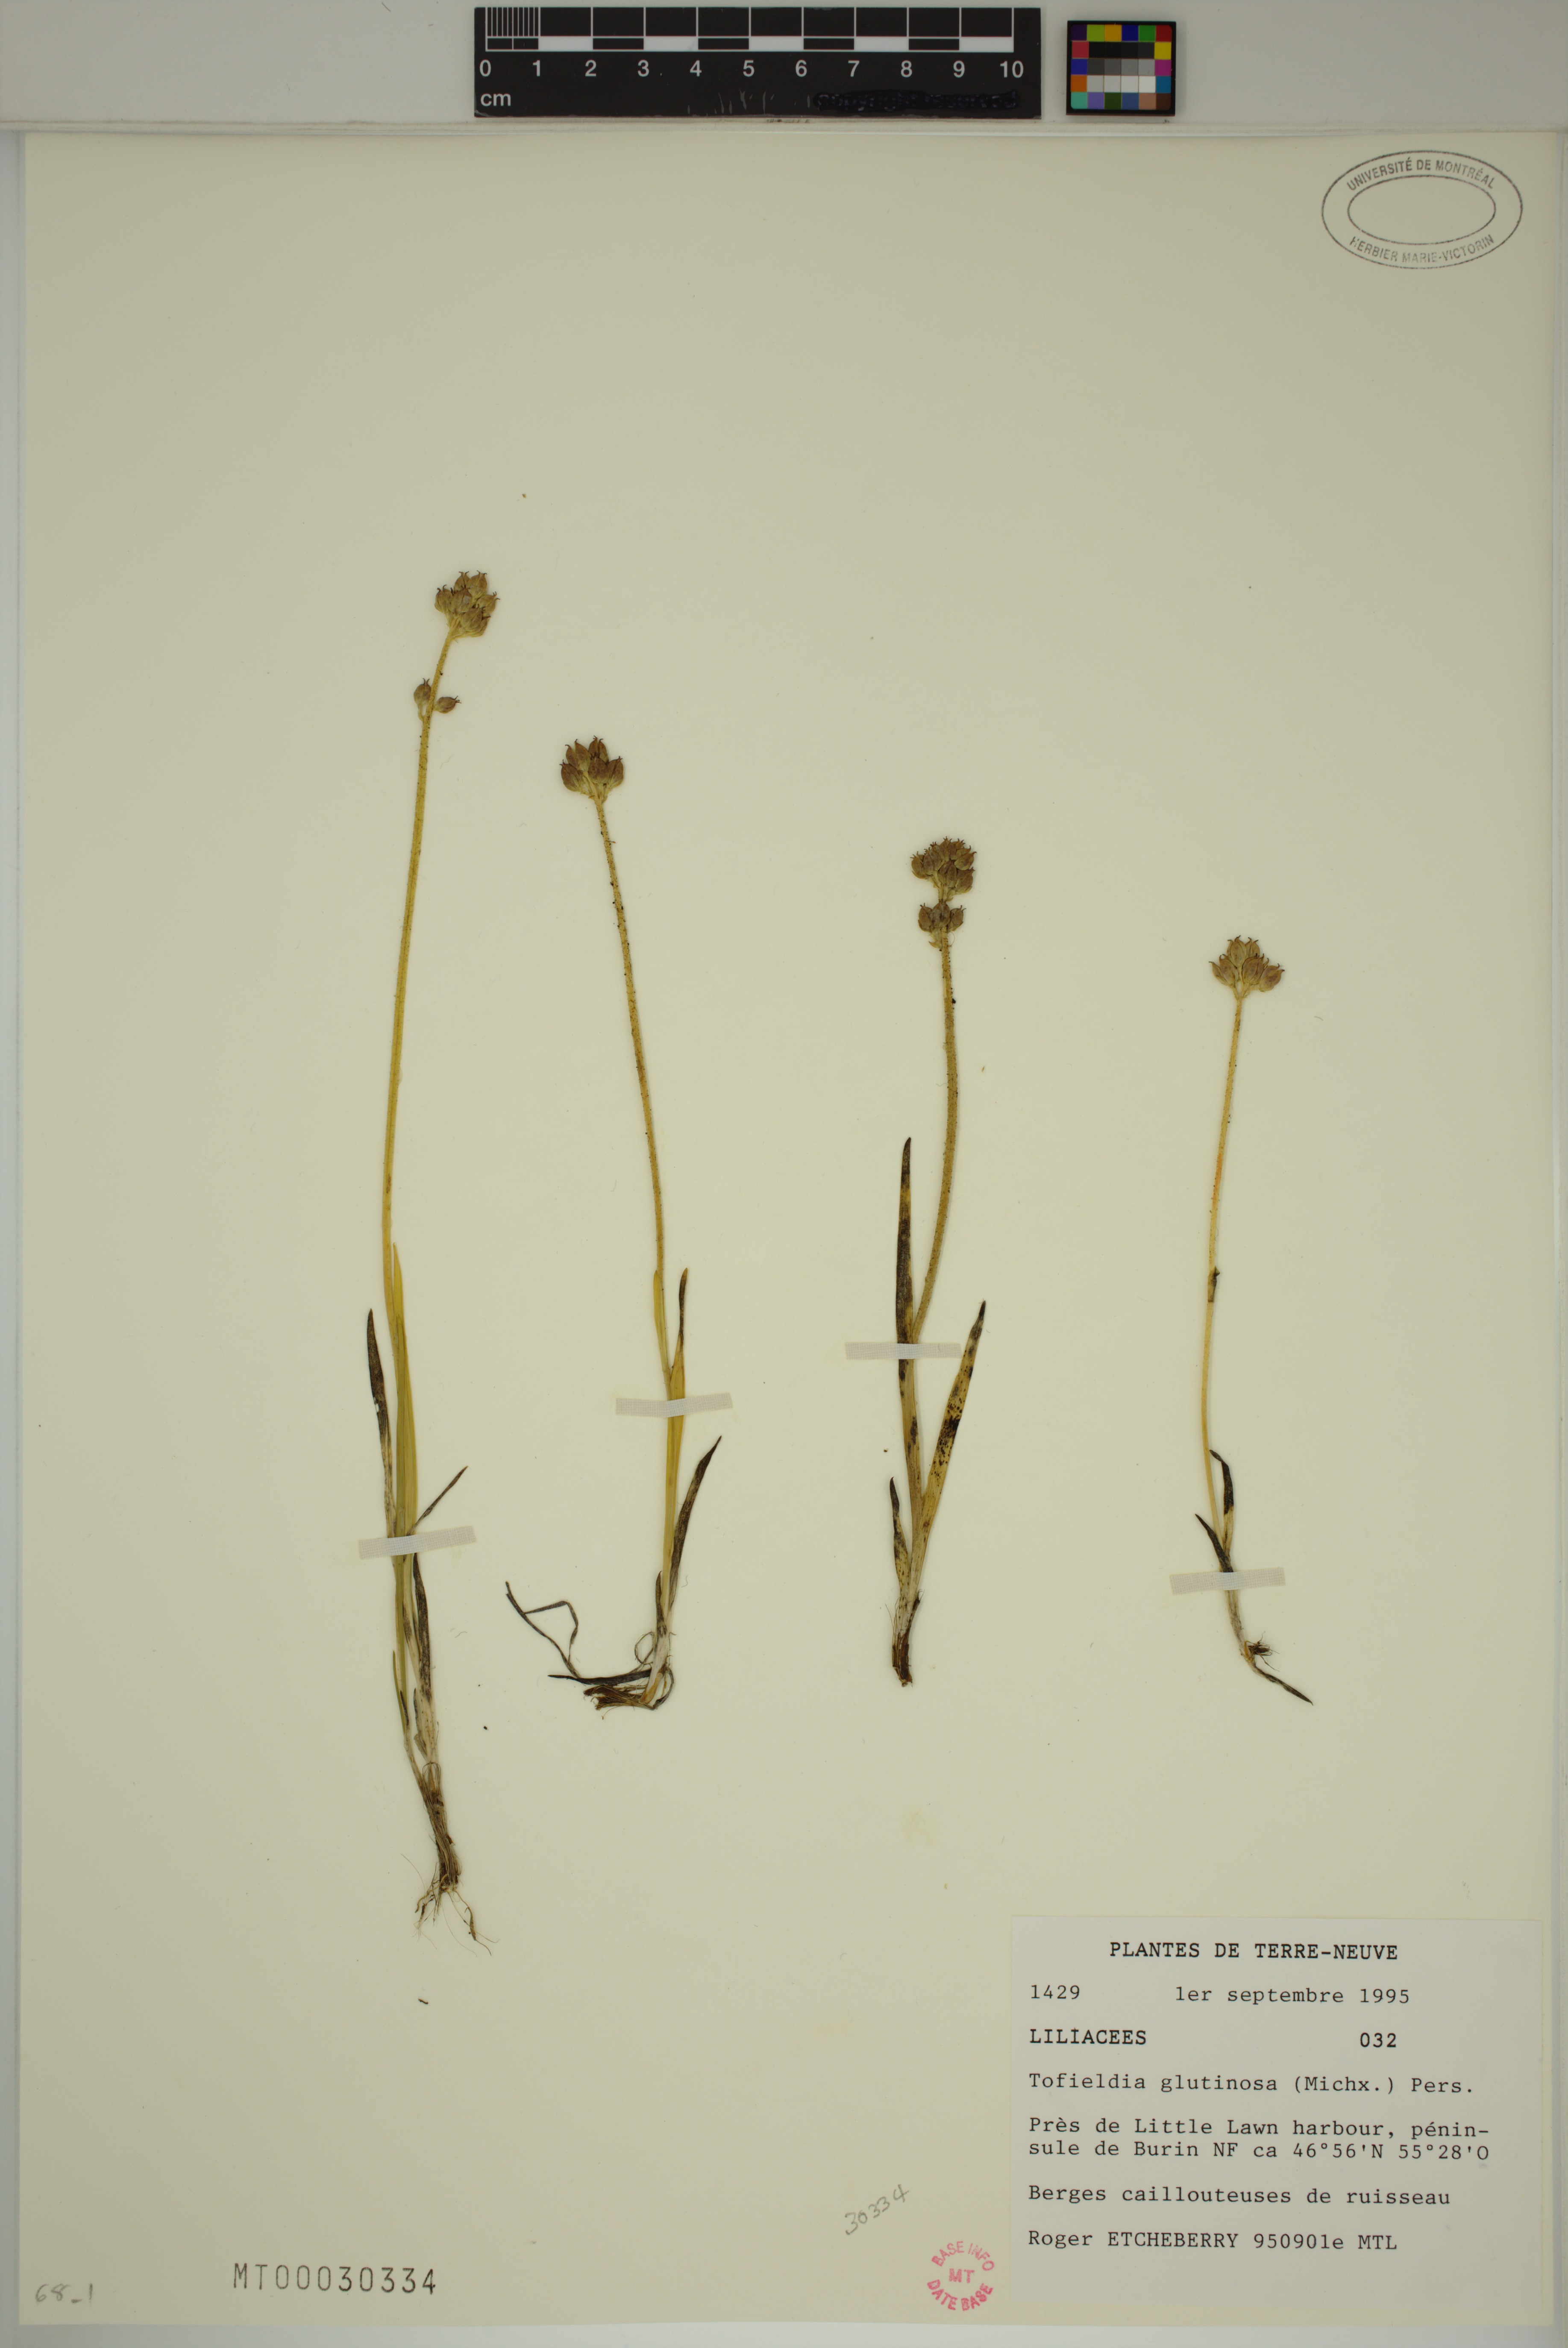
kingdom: Plantae
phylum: Tracheophyta
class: Liliopsida
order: Alismatales
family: Tofieldiaceae
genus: Triantha
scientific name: Triantha glutinosa
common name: Glutinous tofieldia
